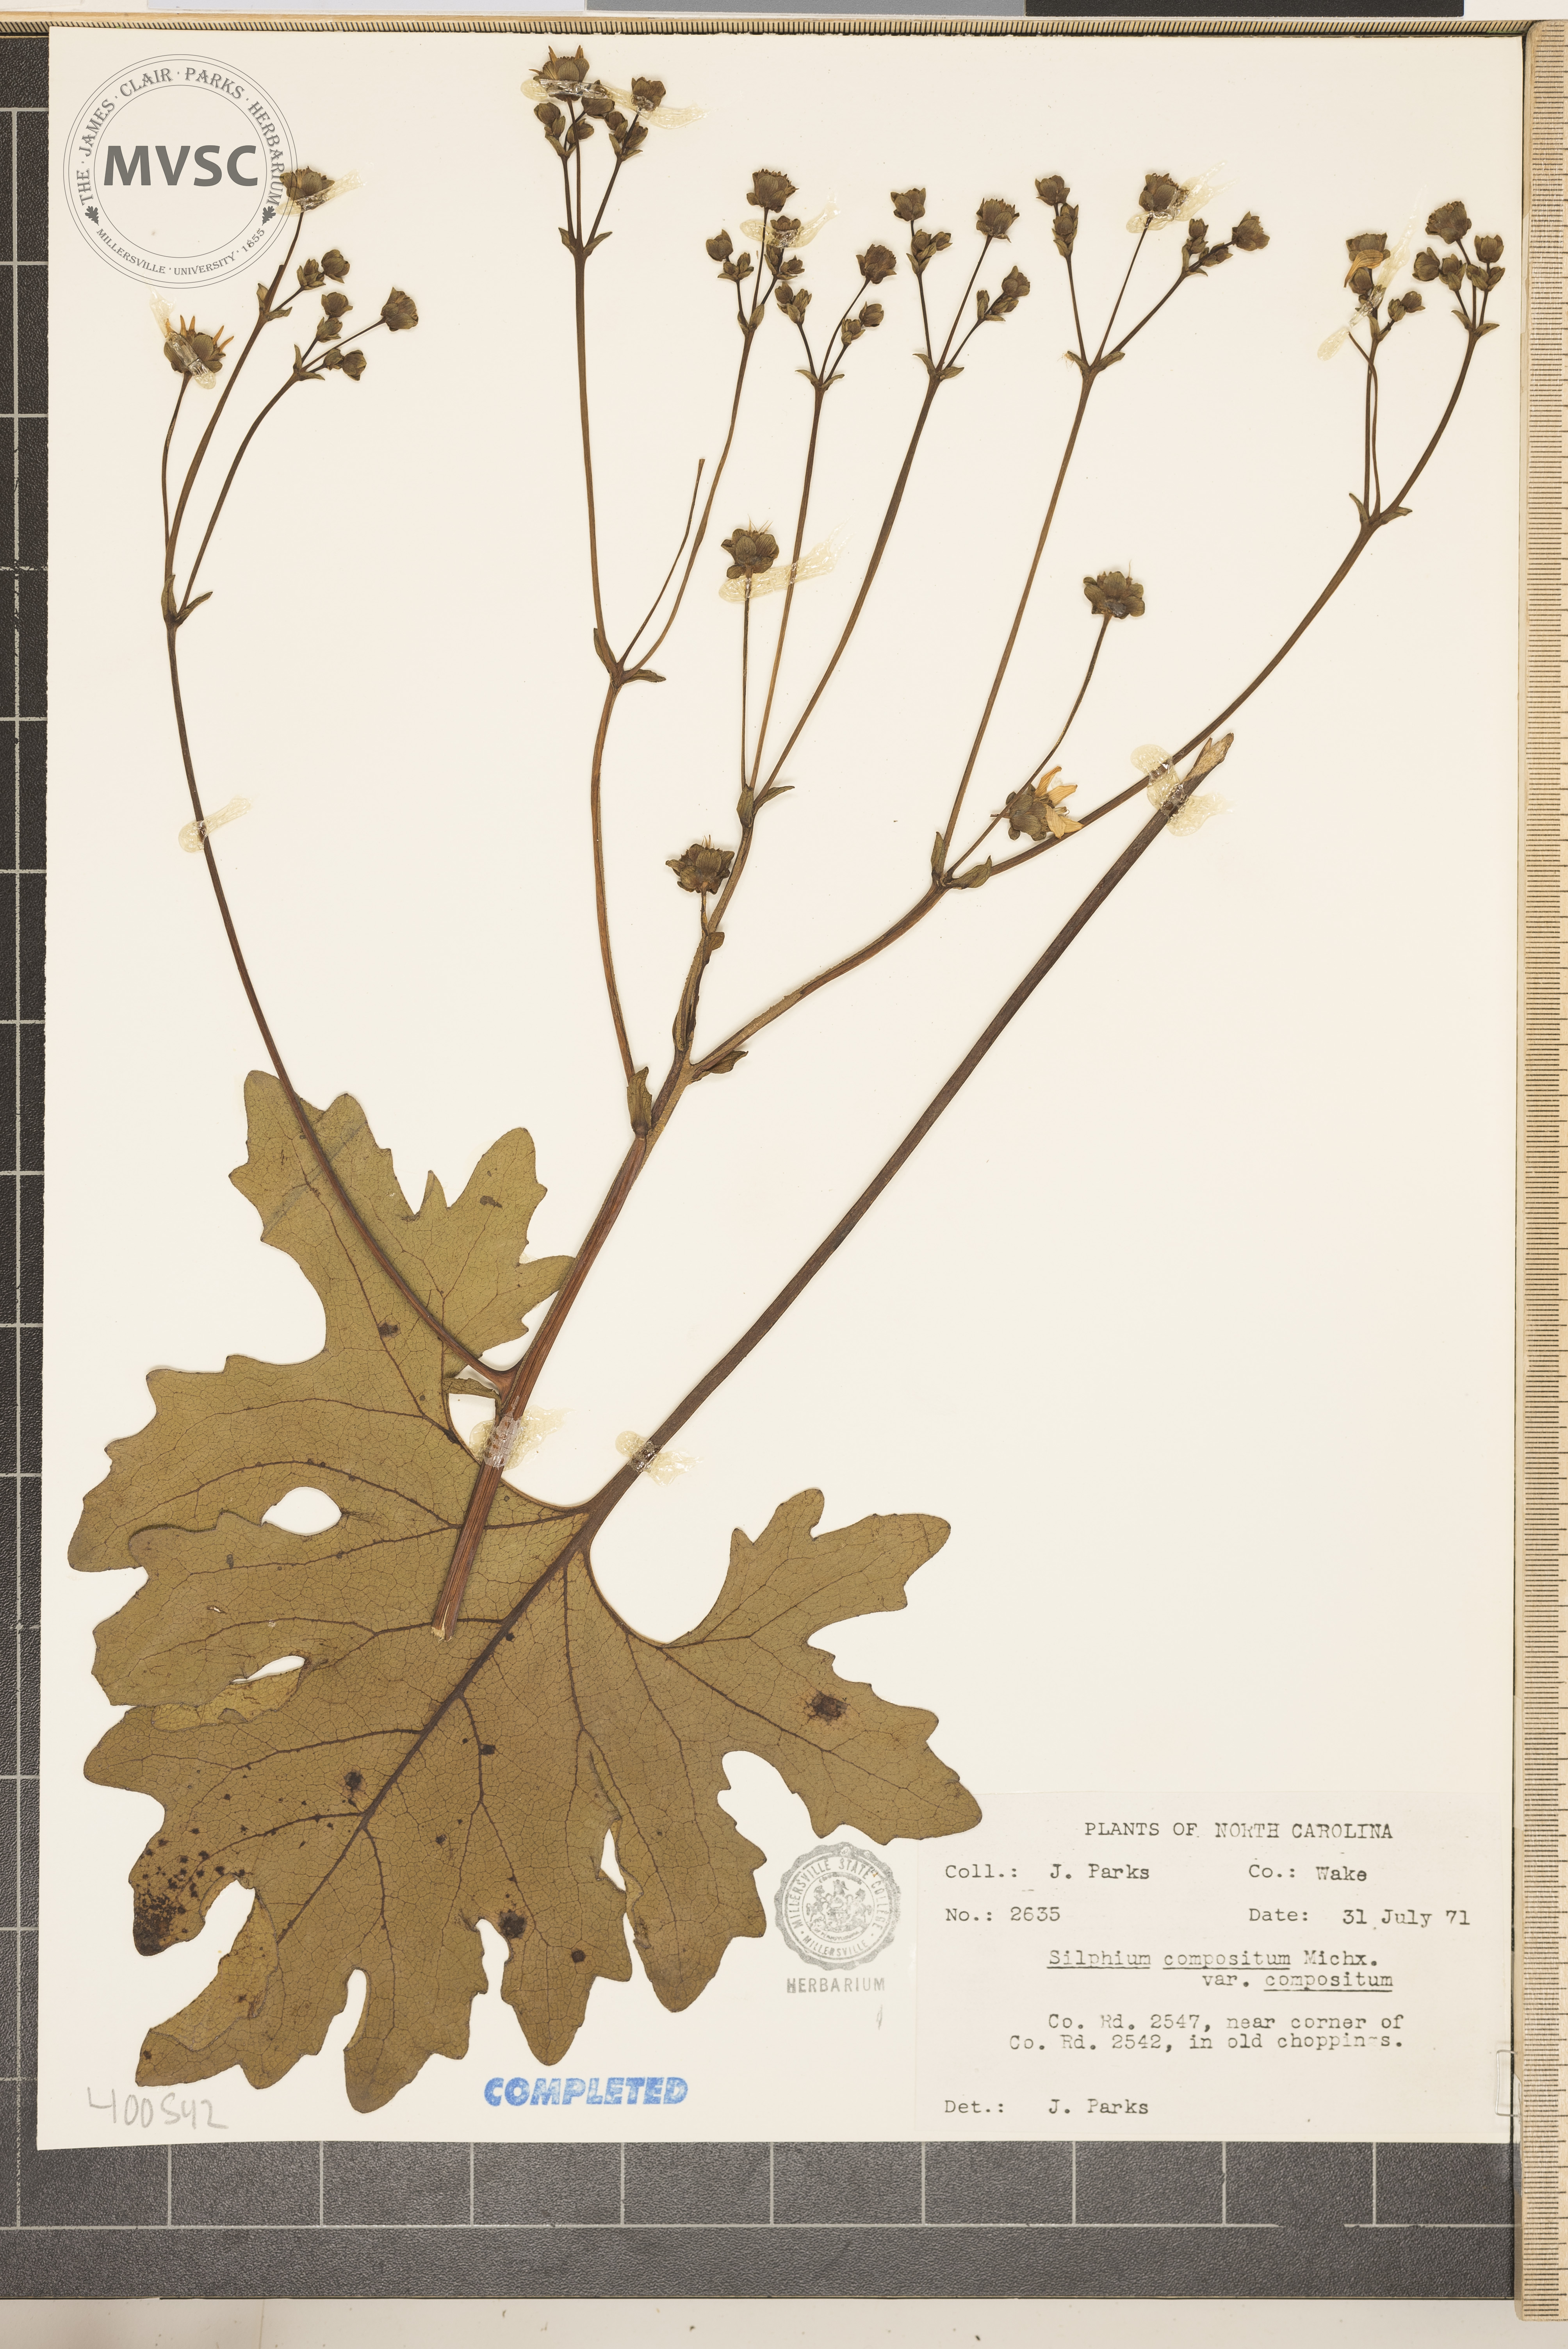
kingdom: Plantae
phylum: Tracheophyta
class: Magnoliopsida
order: Asterales
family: Asteraceae
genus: Silphium
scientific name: Silphium compositum
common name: Lesser basal-leaf rosinweed
